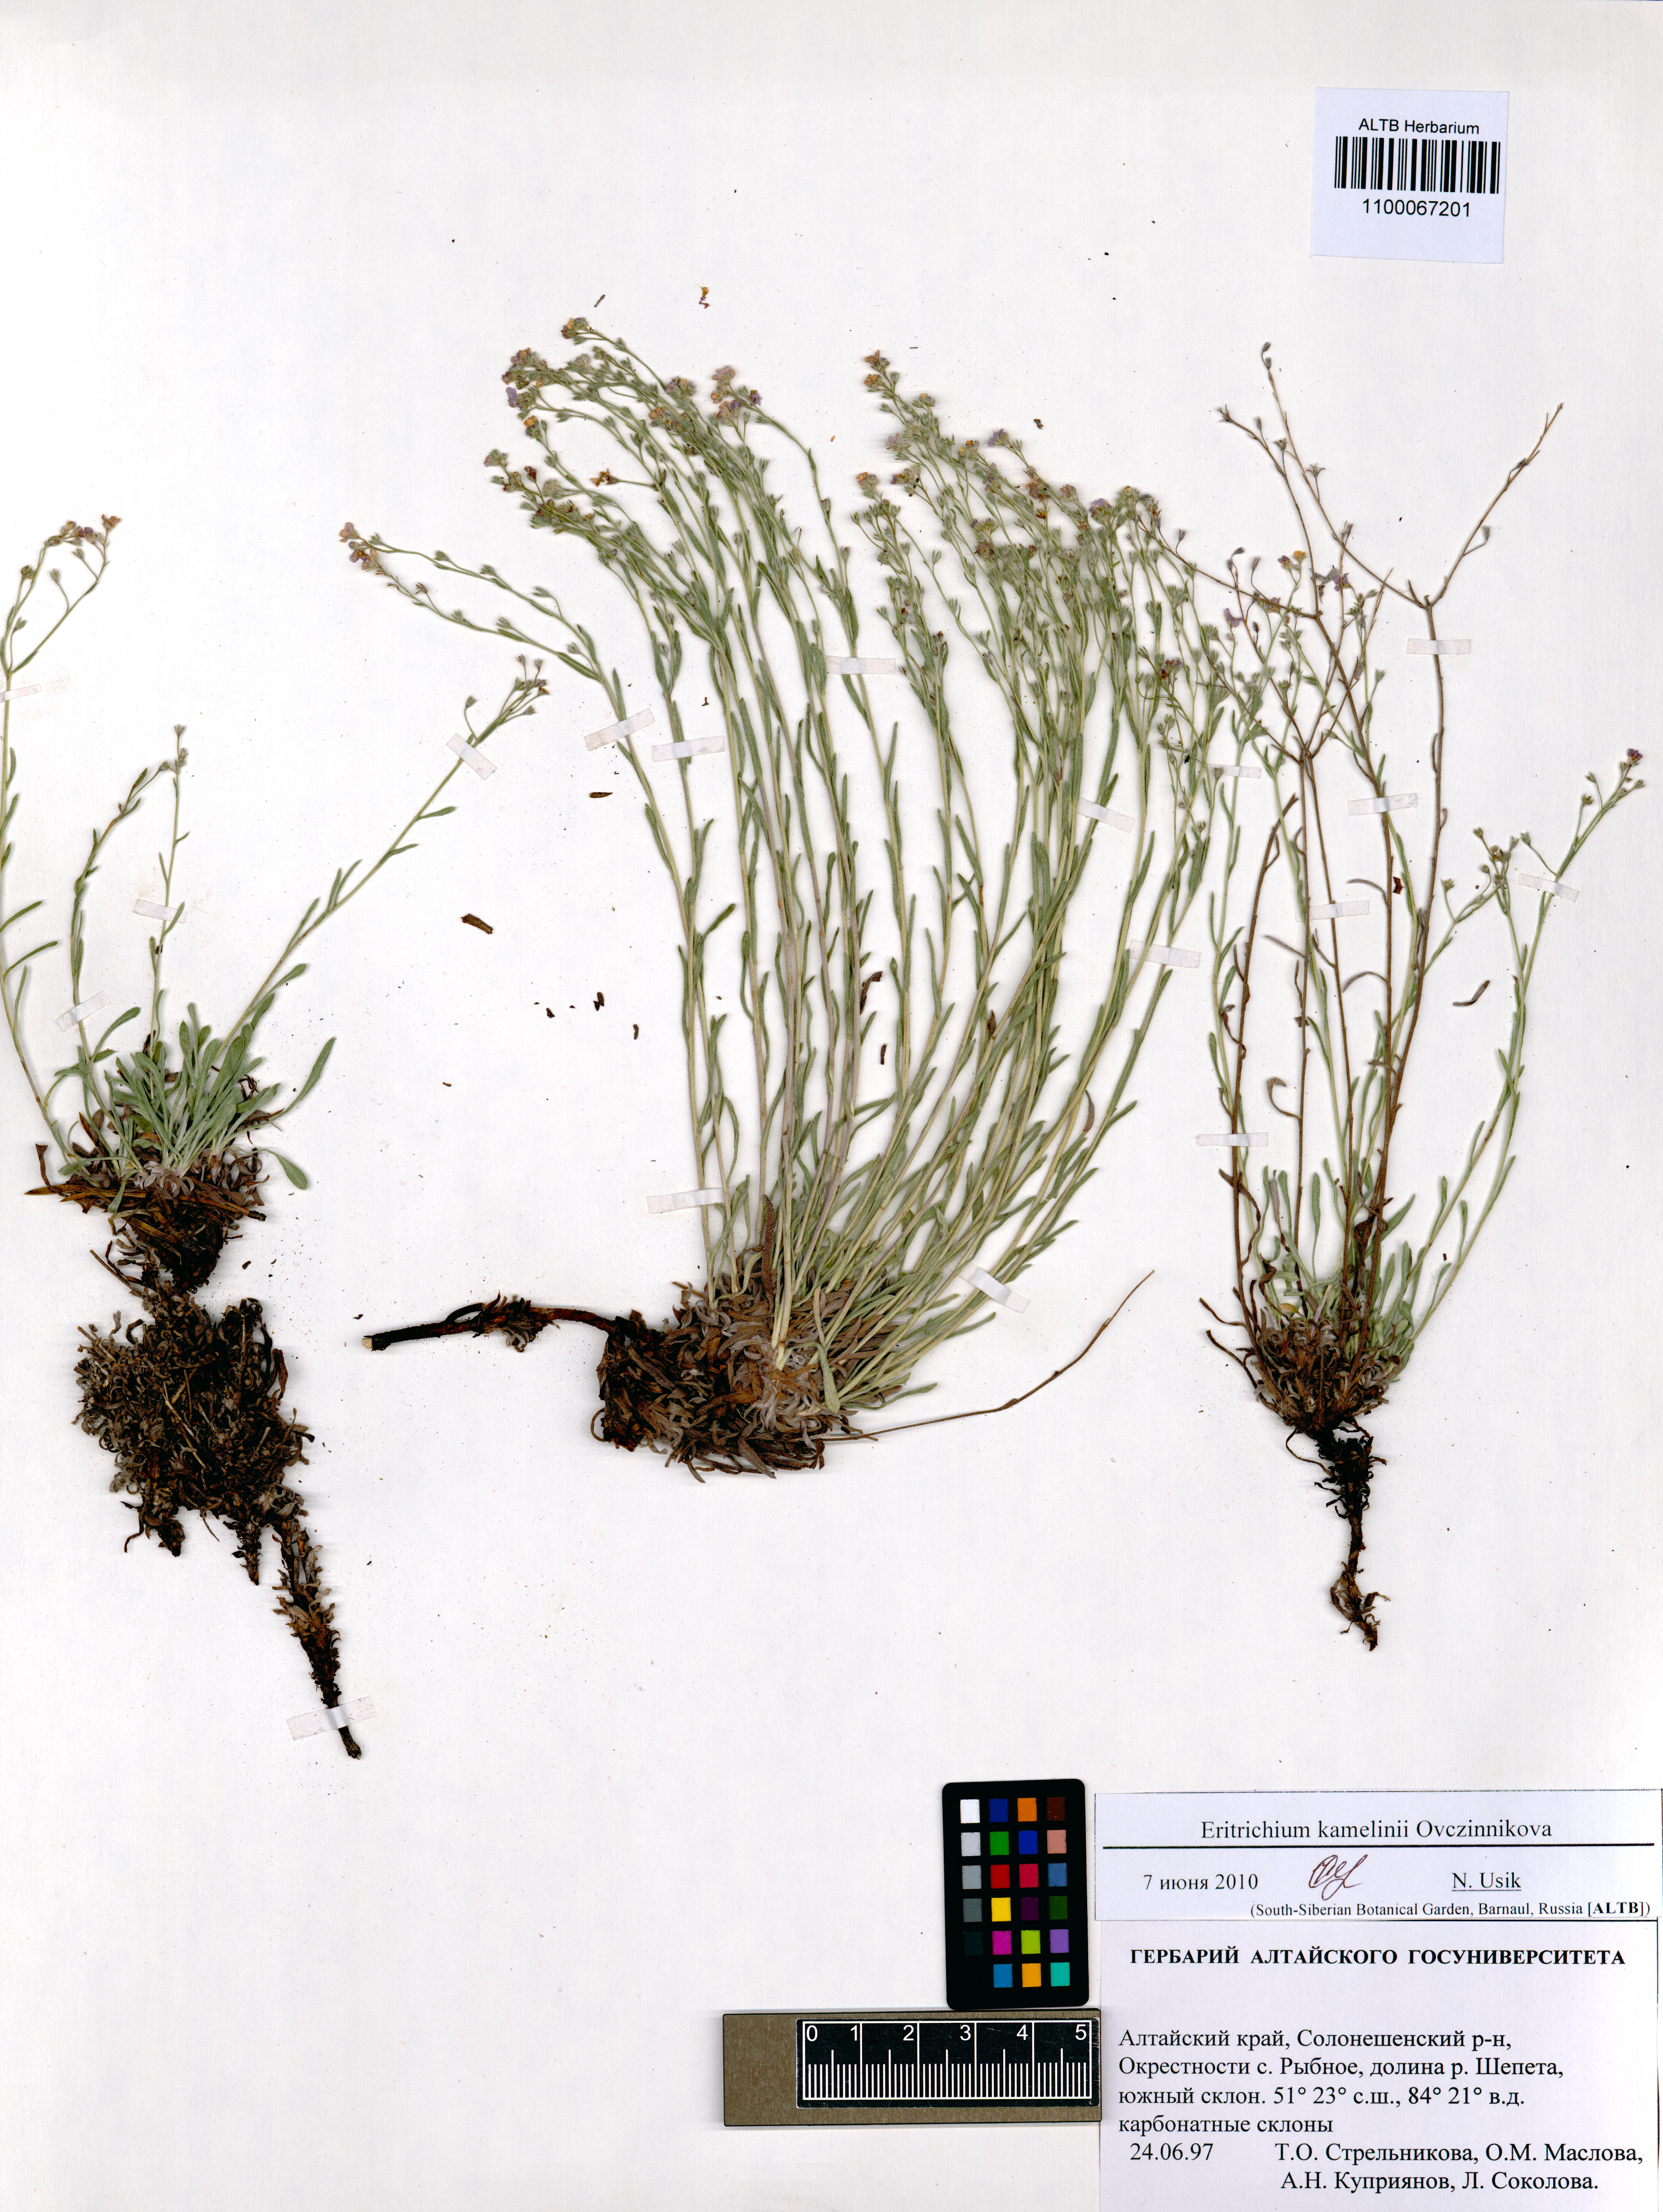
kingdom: Plantae
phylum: Tracheophyta
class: Magnoliopsida
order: Boraginales
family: Boraginaceae
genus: Eritrichium
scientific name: Eritrichium kamelinii
